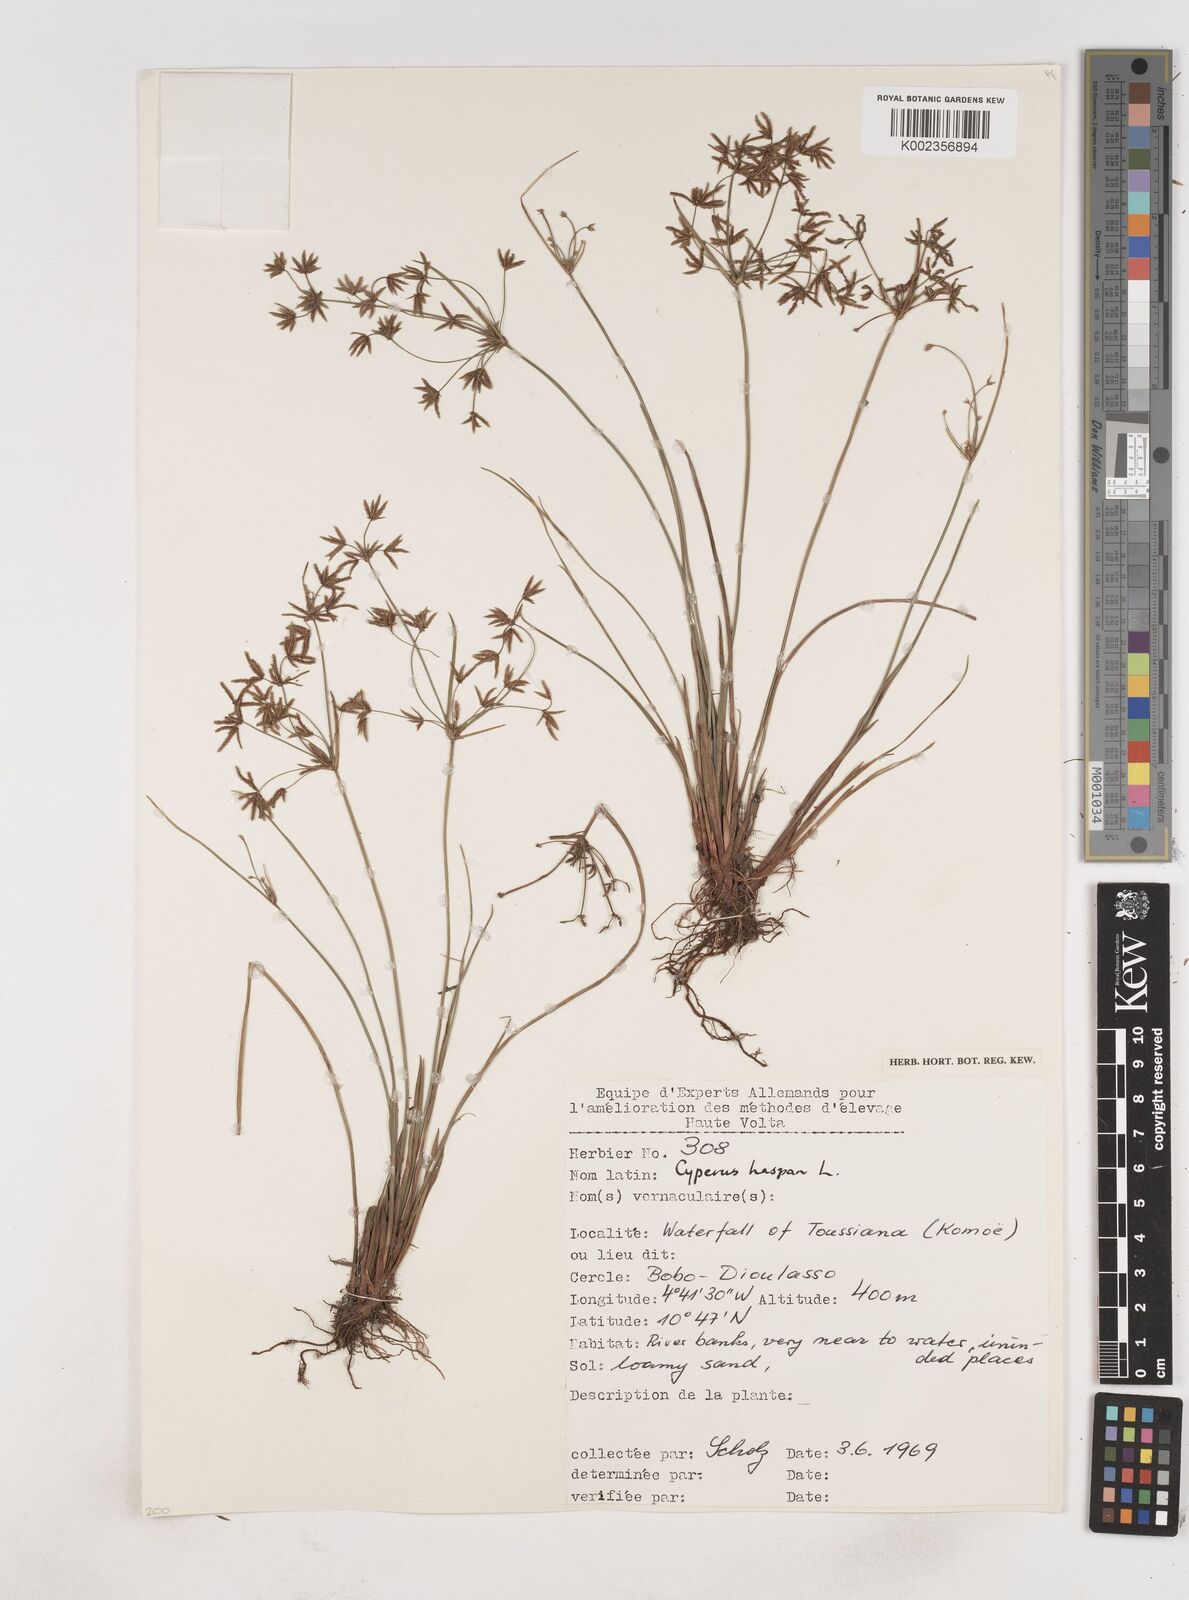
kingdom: Plantae
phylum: Tracheophyta
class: Liliopsida
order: Poales
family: Cyperaceae
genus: Cyperus
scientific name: Cyperus haspan
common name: Haspan flatsedge
